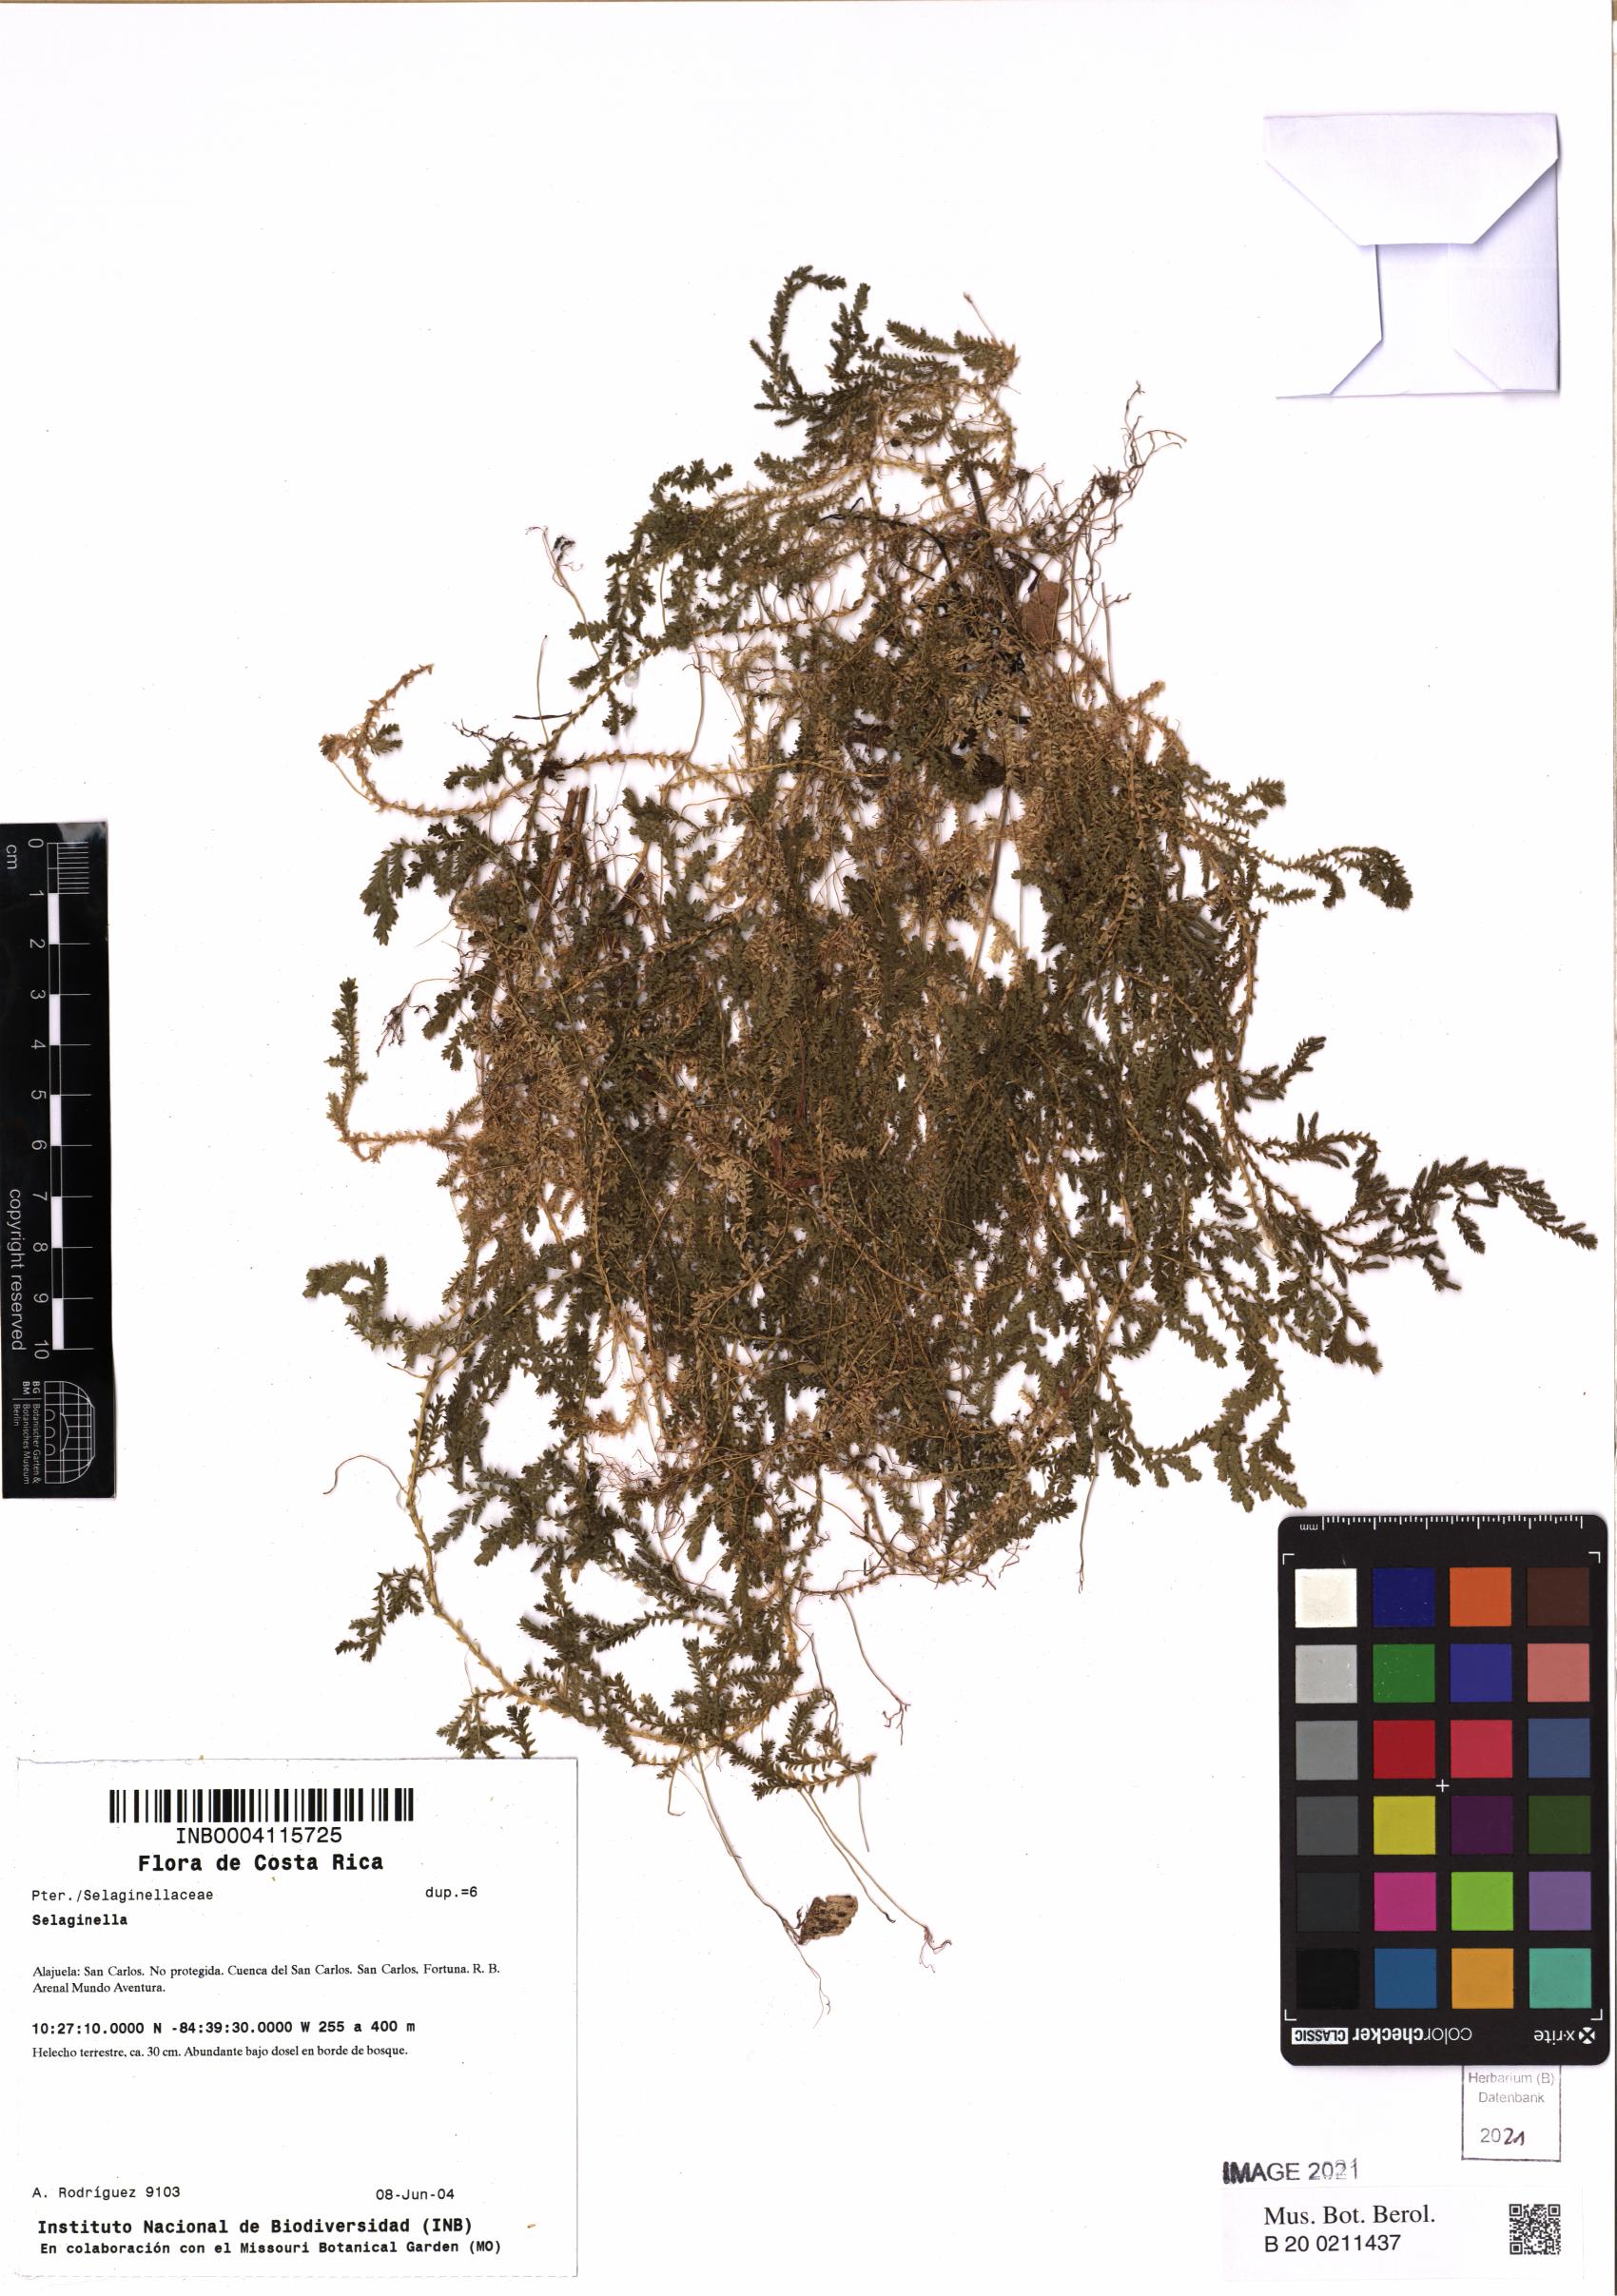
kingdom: Plantae
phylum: Tracheophyta
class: Lycopodiopsida
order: Selaginellales
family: Selaginellaceae
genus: Selaginella
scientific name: Selaginella
